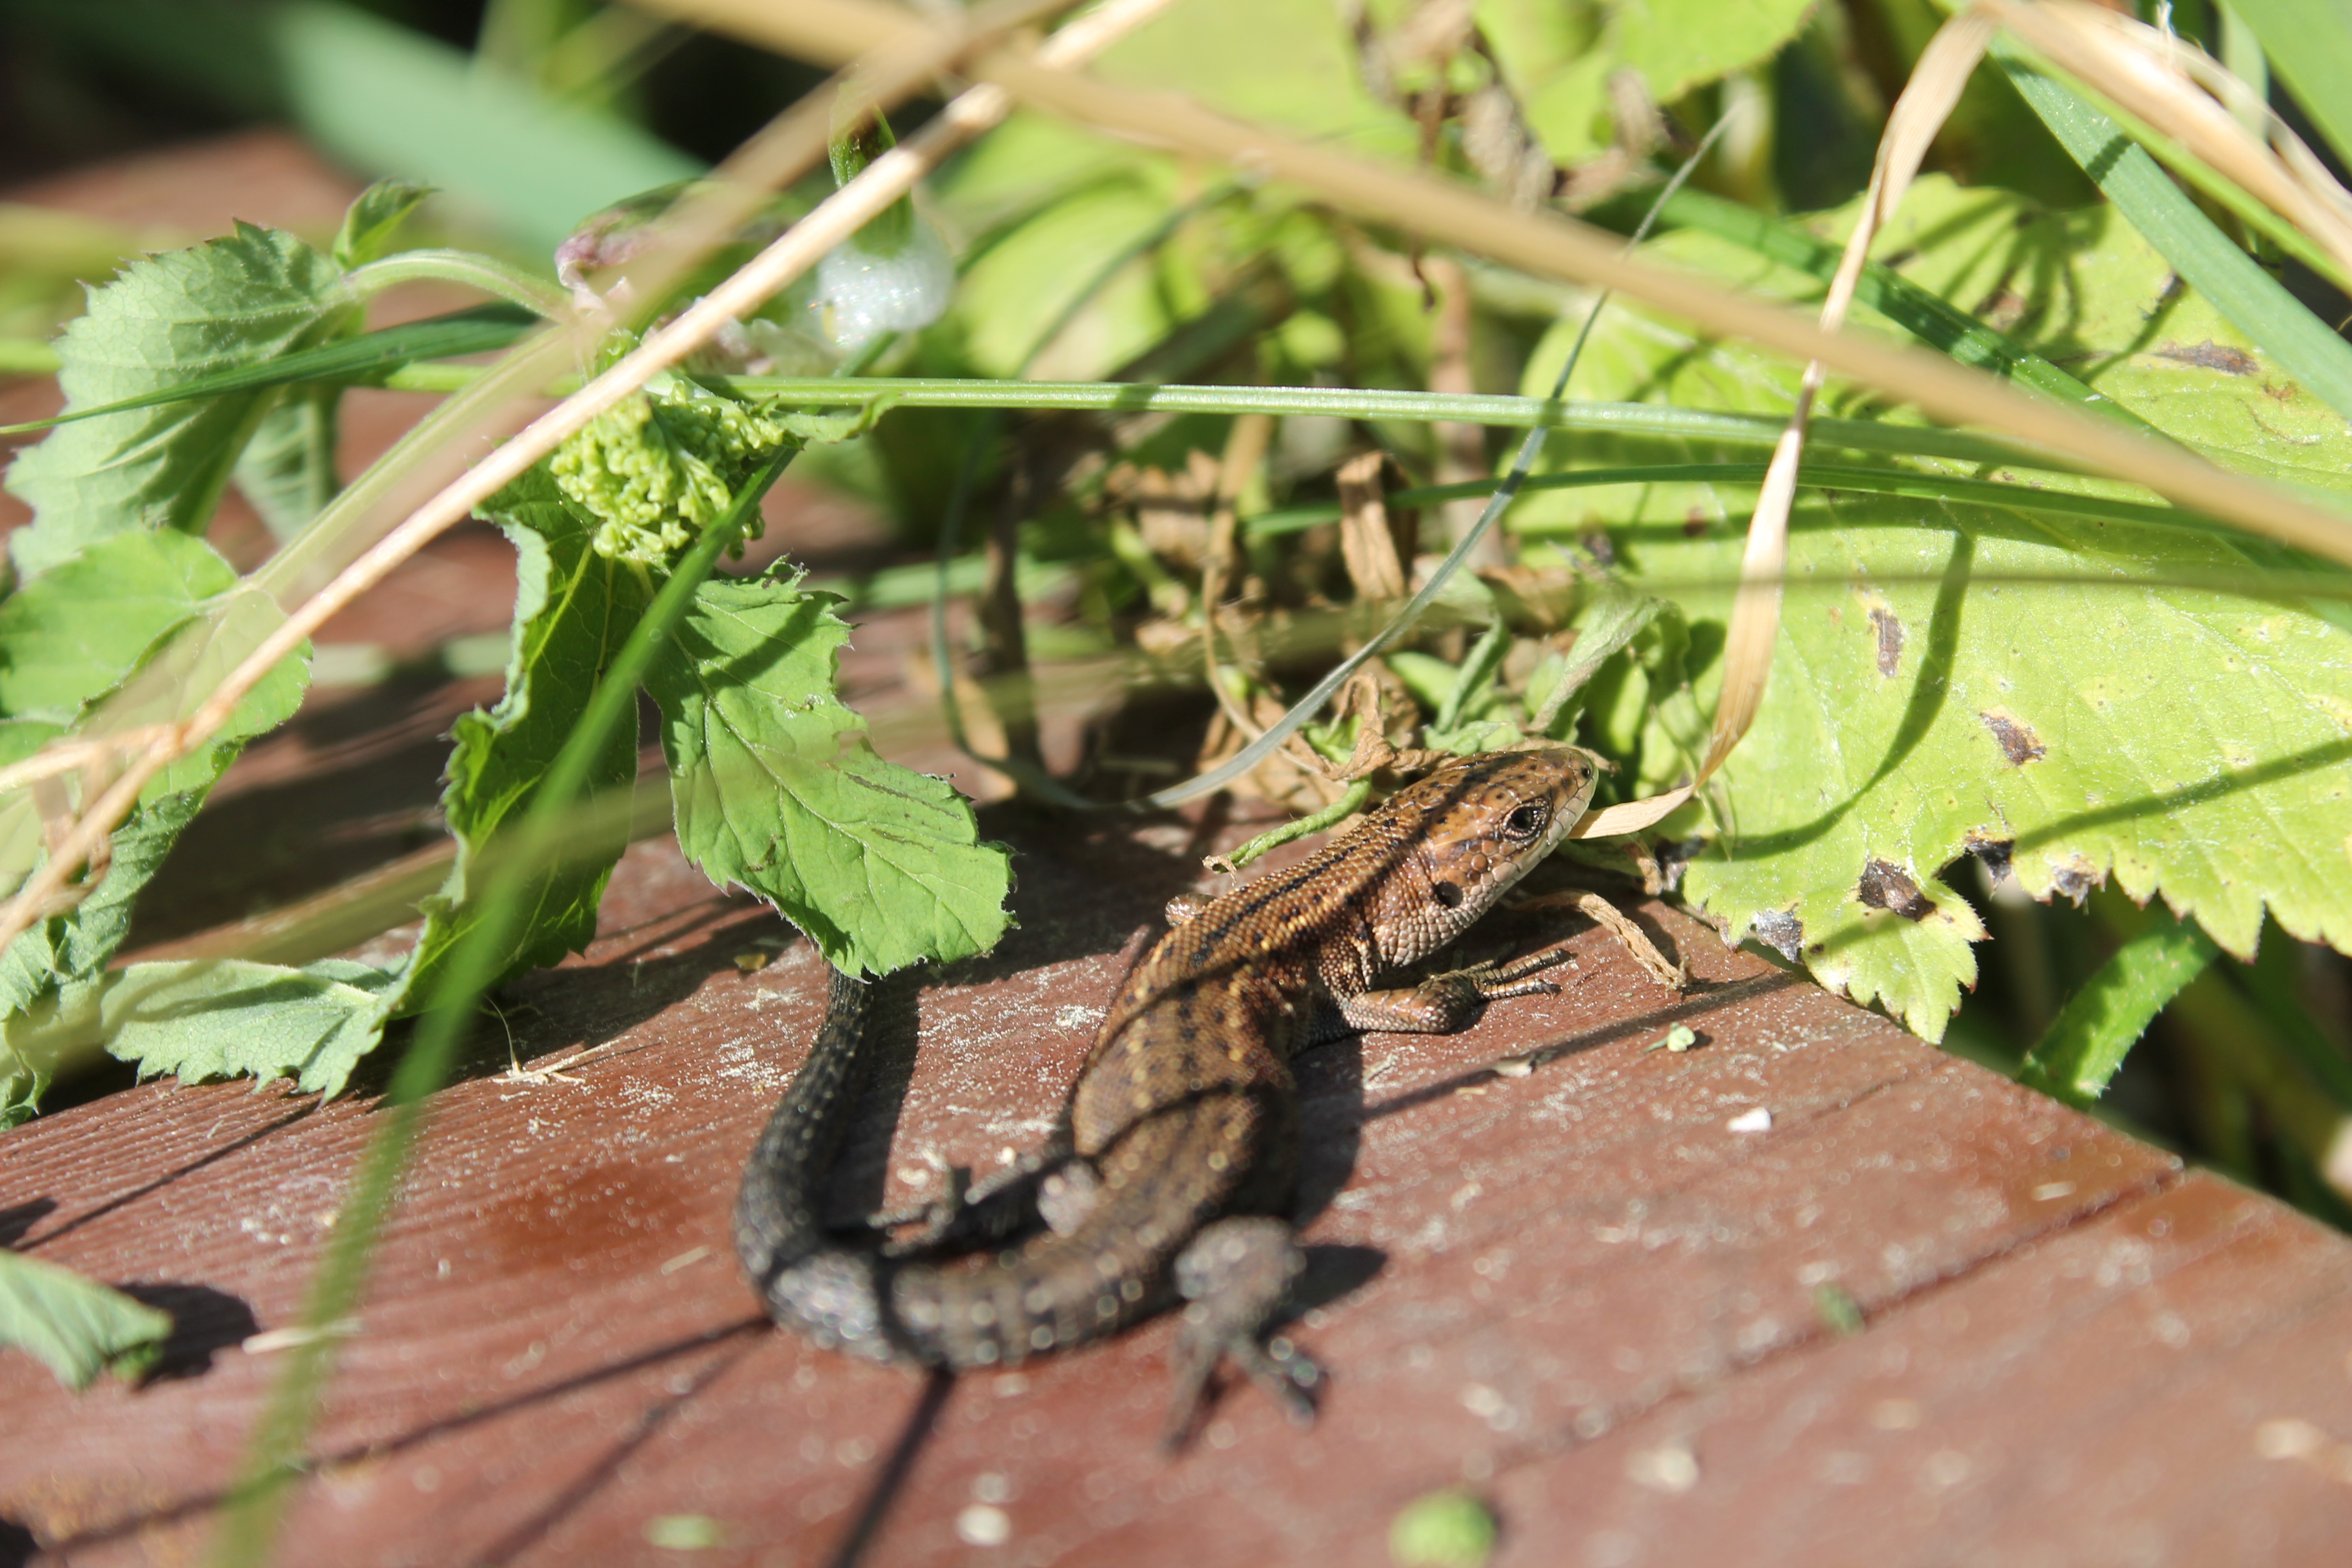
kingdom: Animalia
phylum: Chordata
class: Squamata
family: Lacertidae
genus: Zootoca
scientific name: Zootoca vivipara
